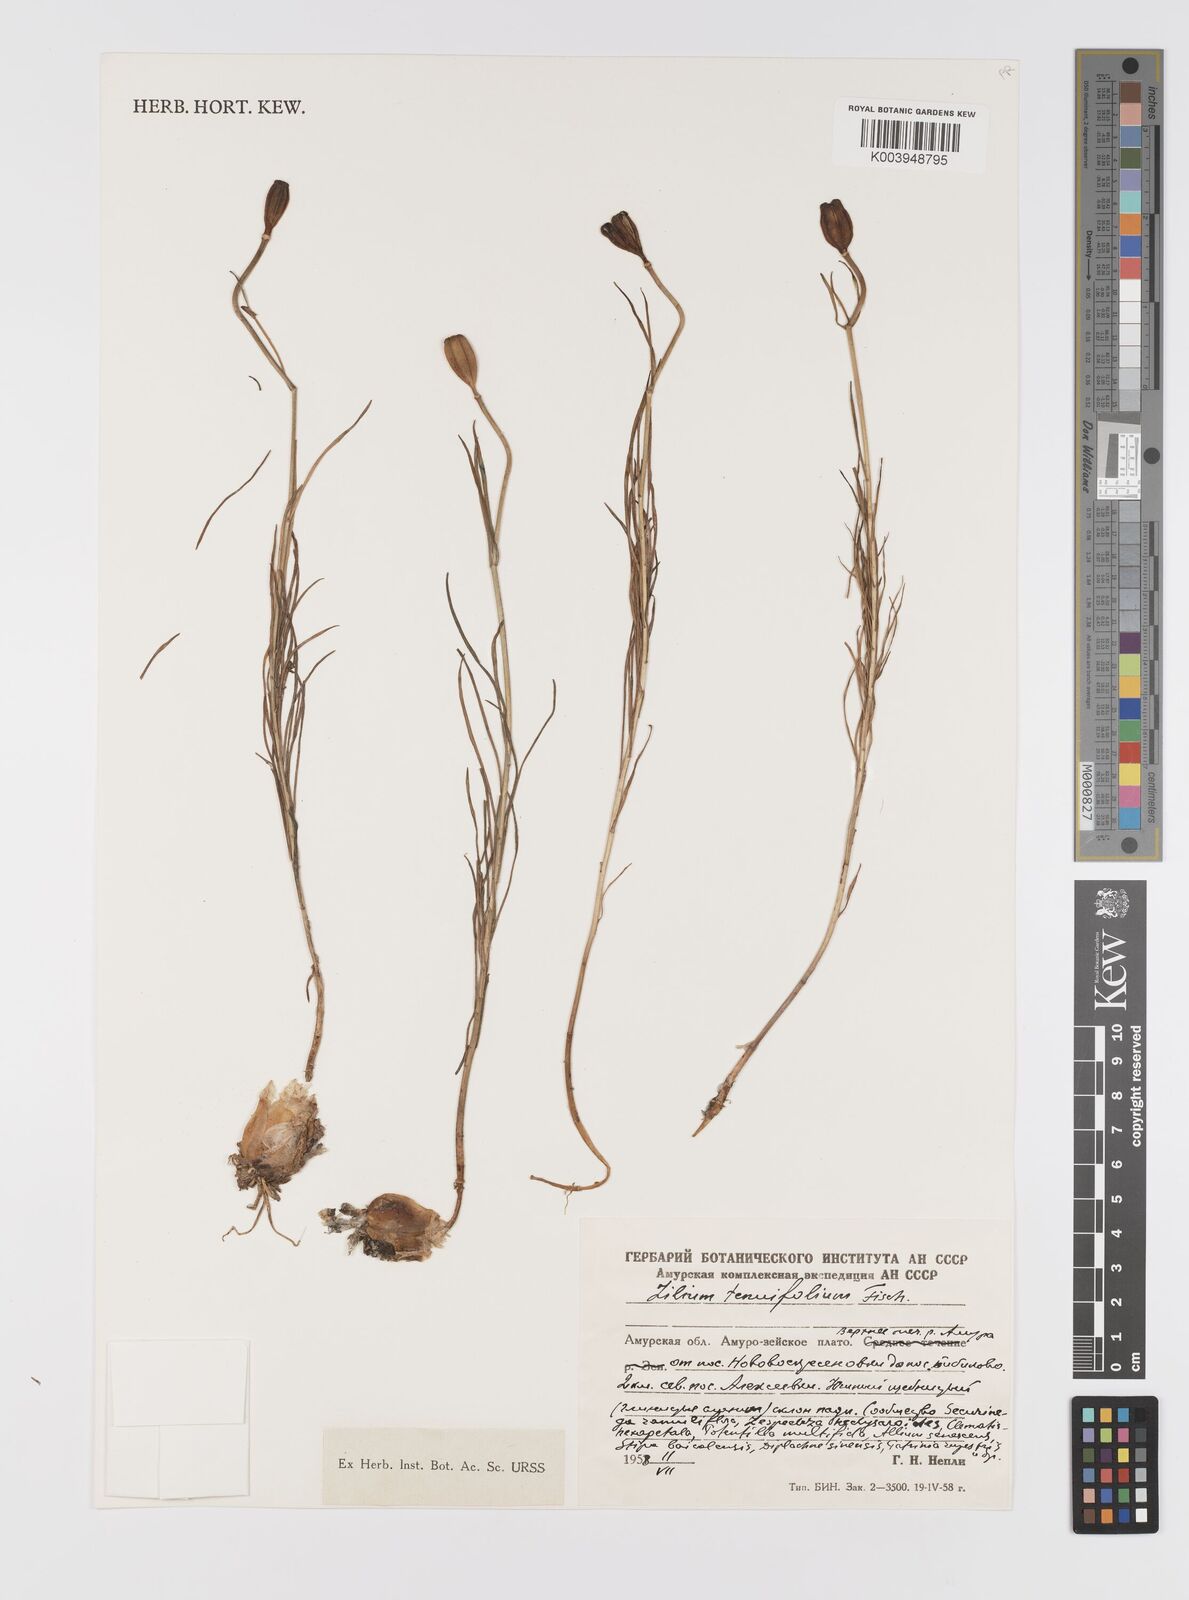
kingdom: Plantae
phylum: Tracheophyta
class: Liliopsida
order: Liliales
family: Liliaceae
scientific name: Liliaceae
